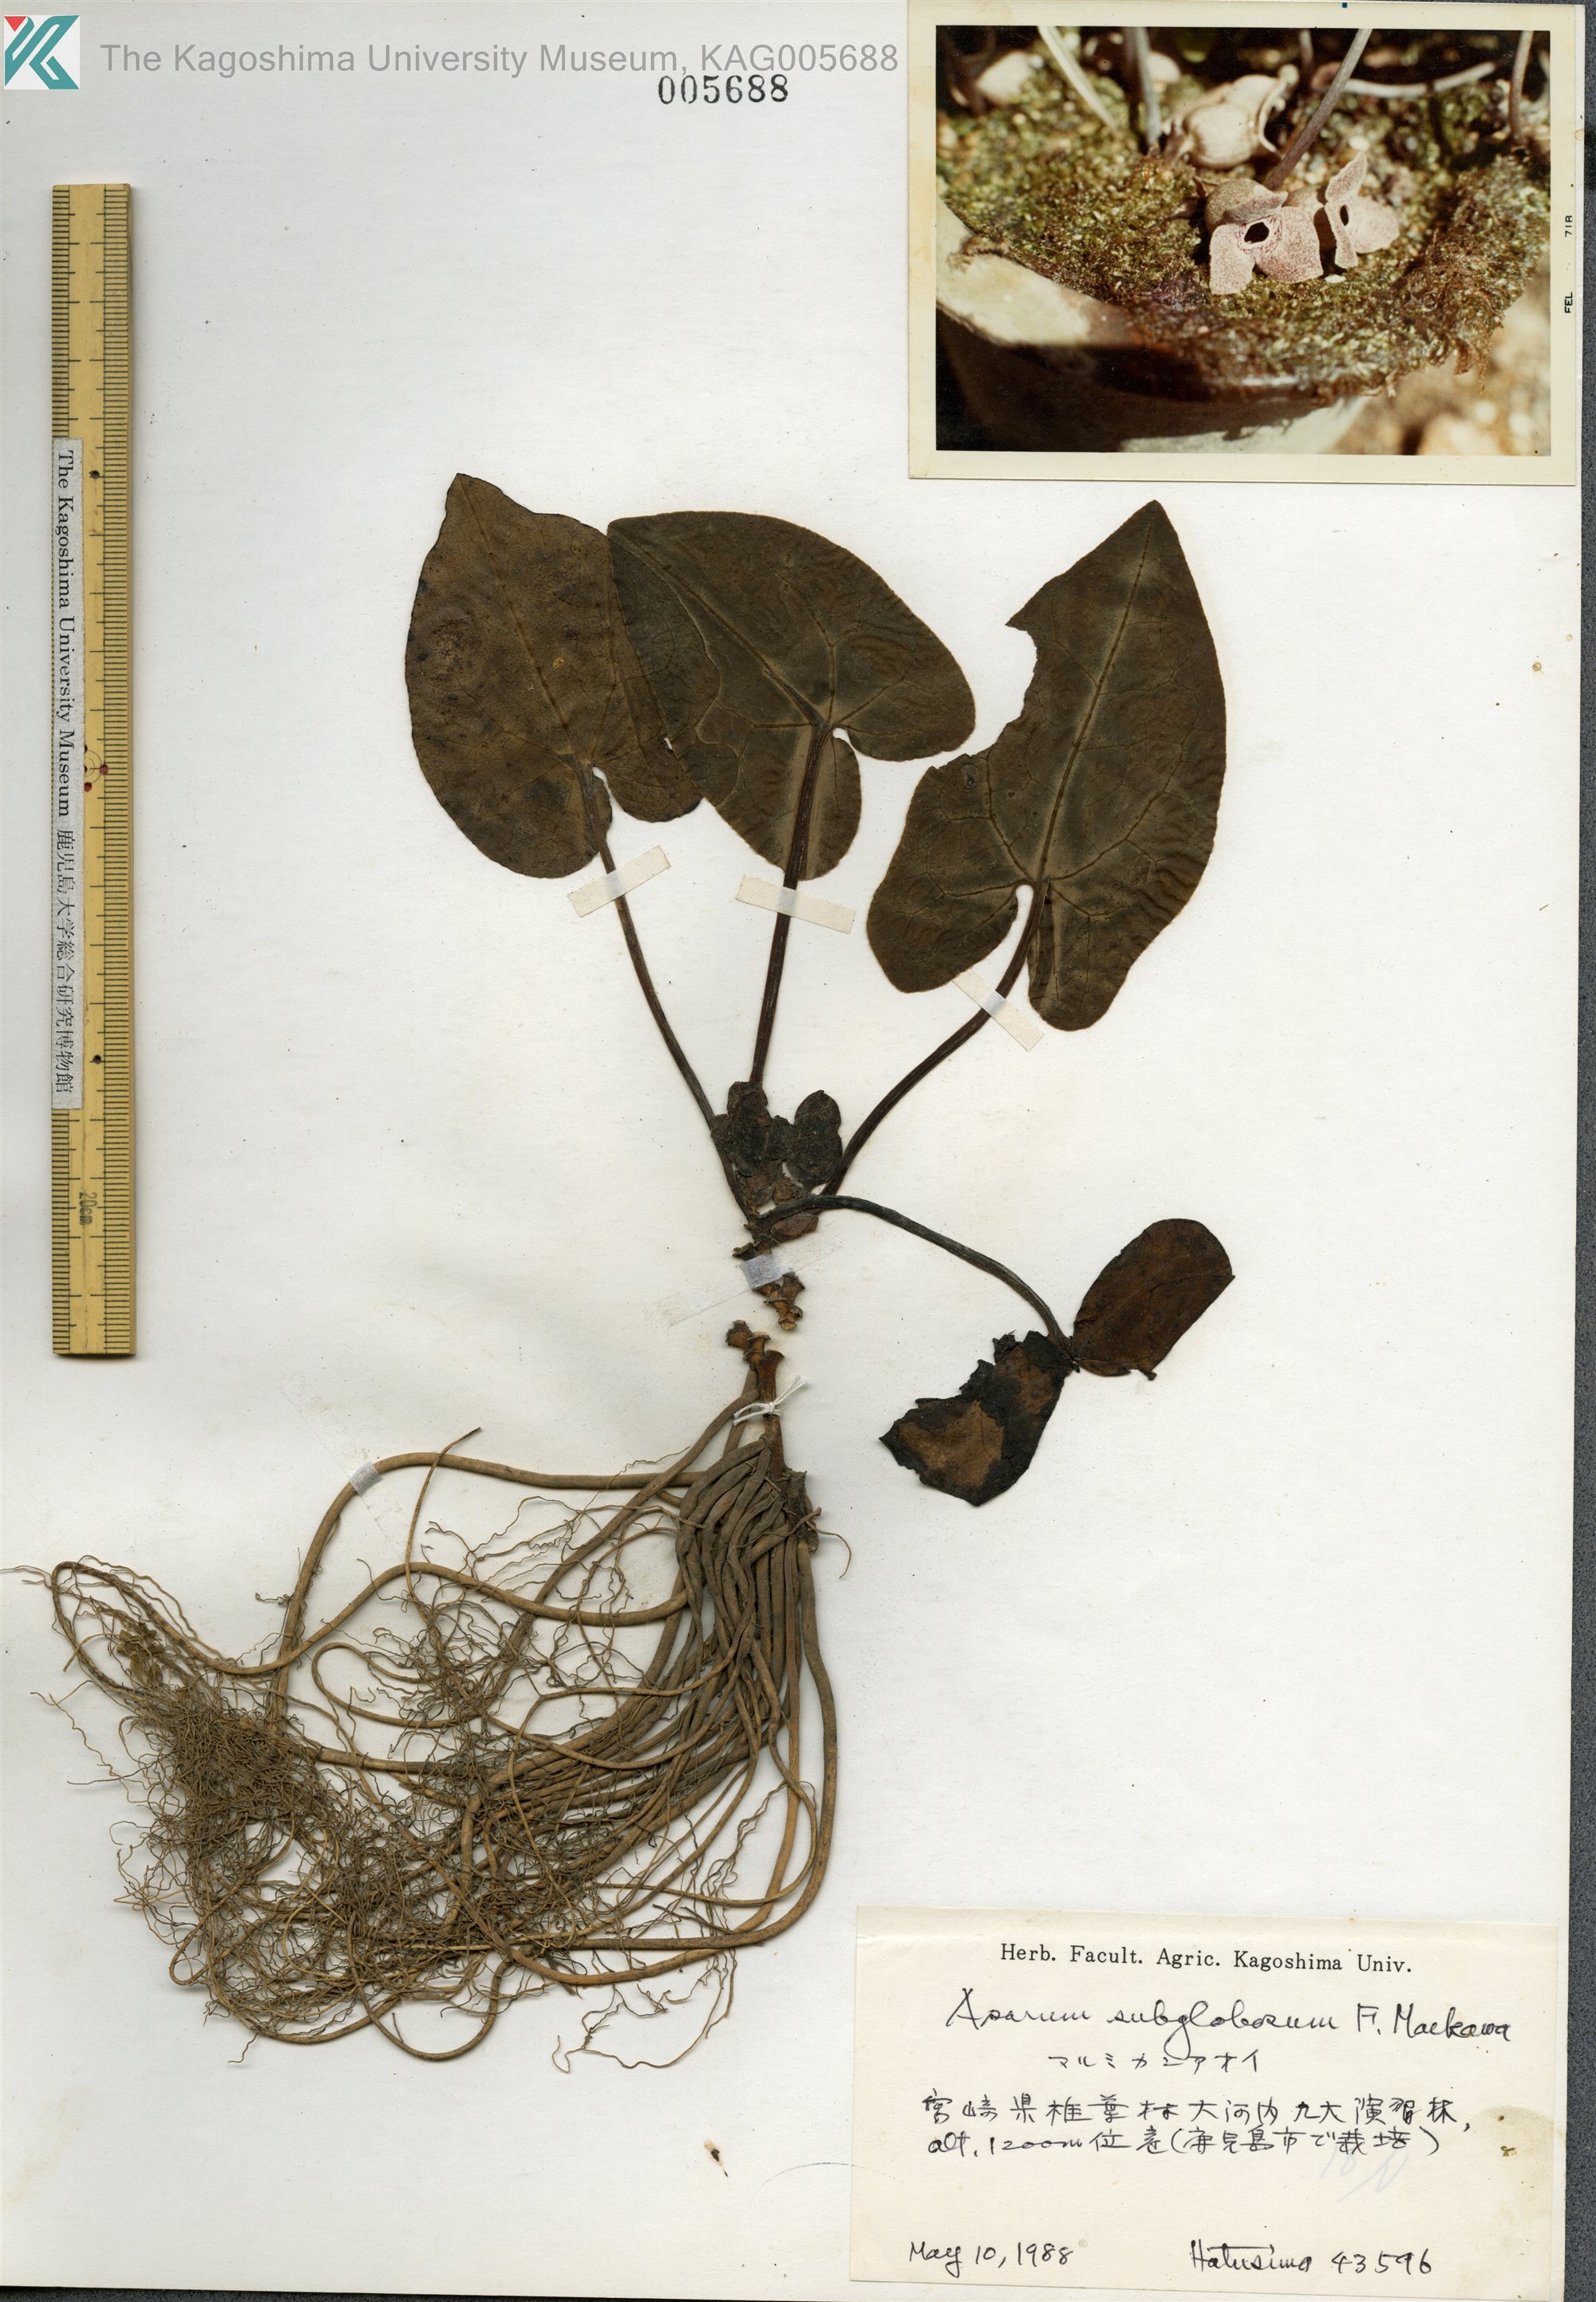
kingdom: Plantae
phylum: Tracheophyta
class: Magnoliopsida
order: Piperales
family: Aristolochiaceae
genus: Asarum
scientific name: Asarum subglobosum
